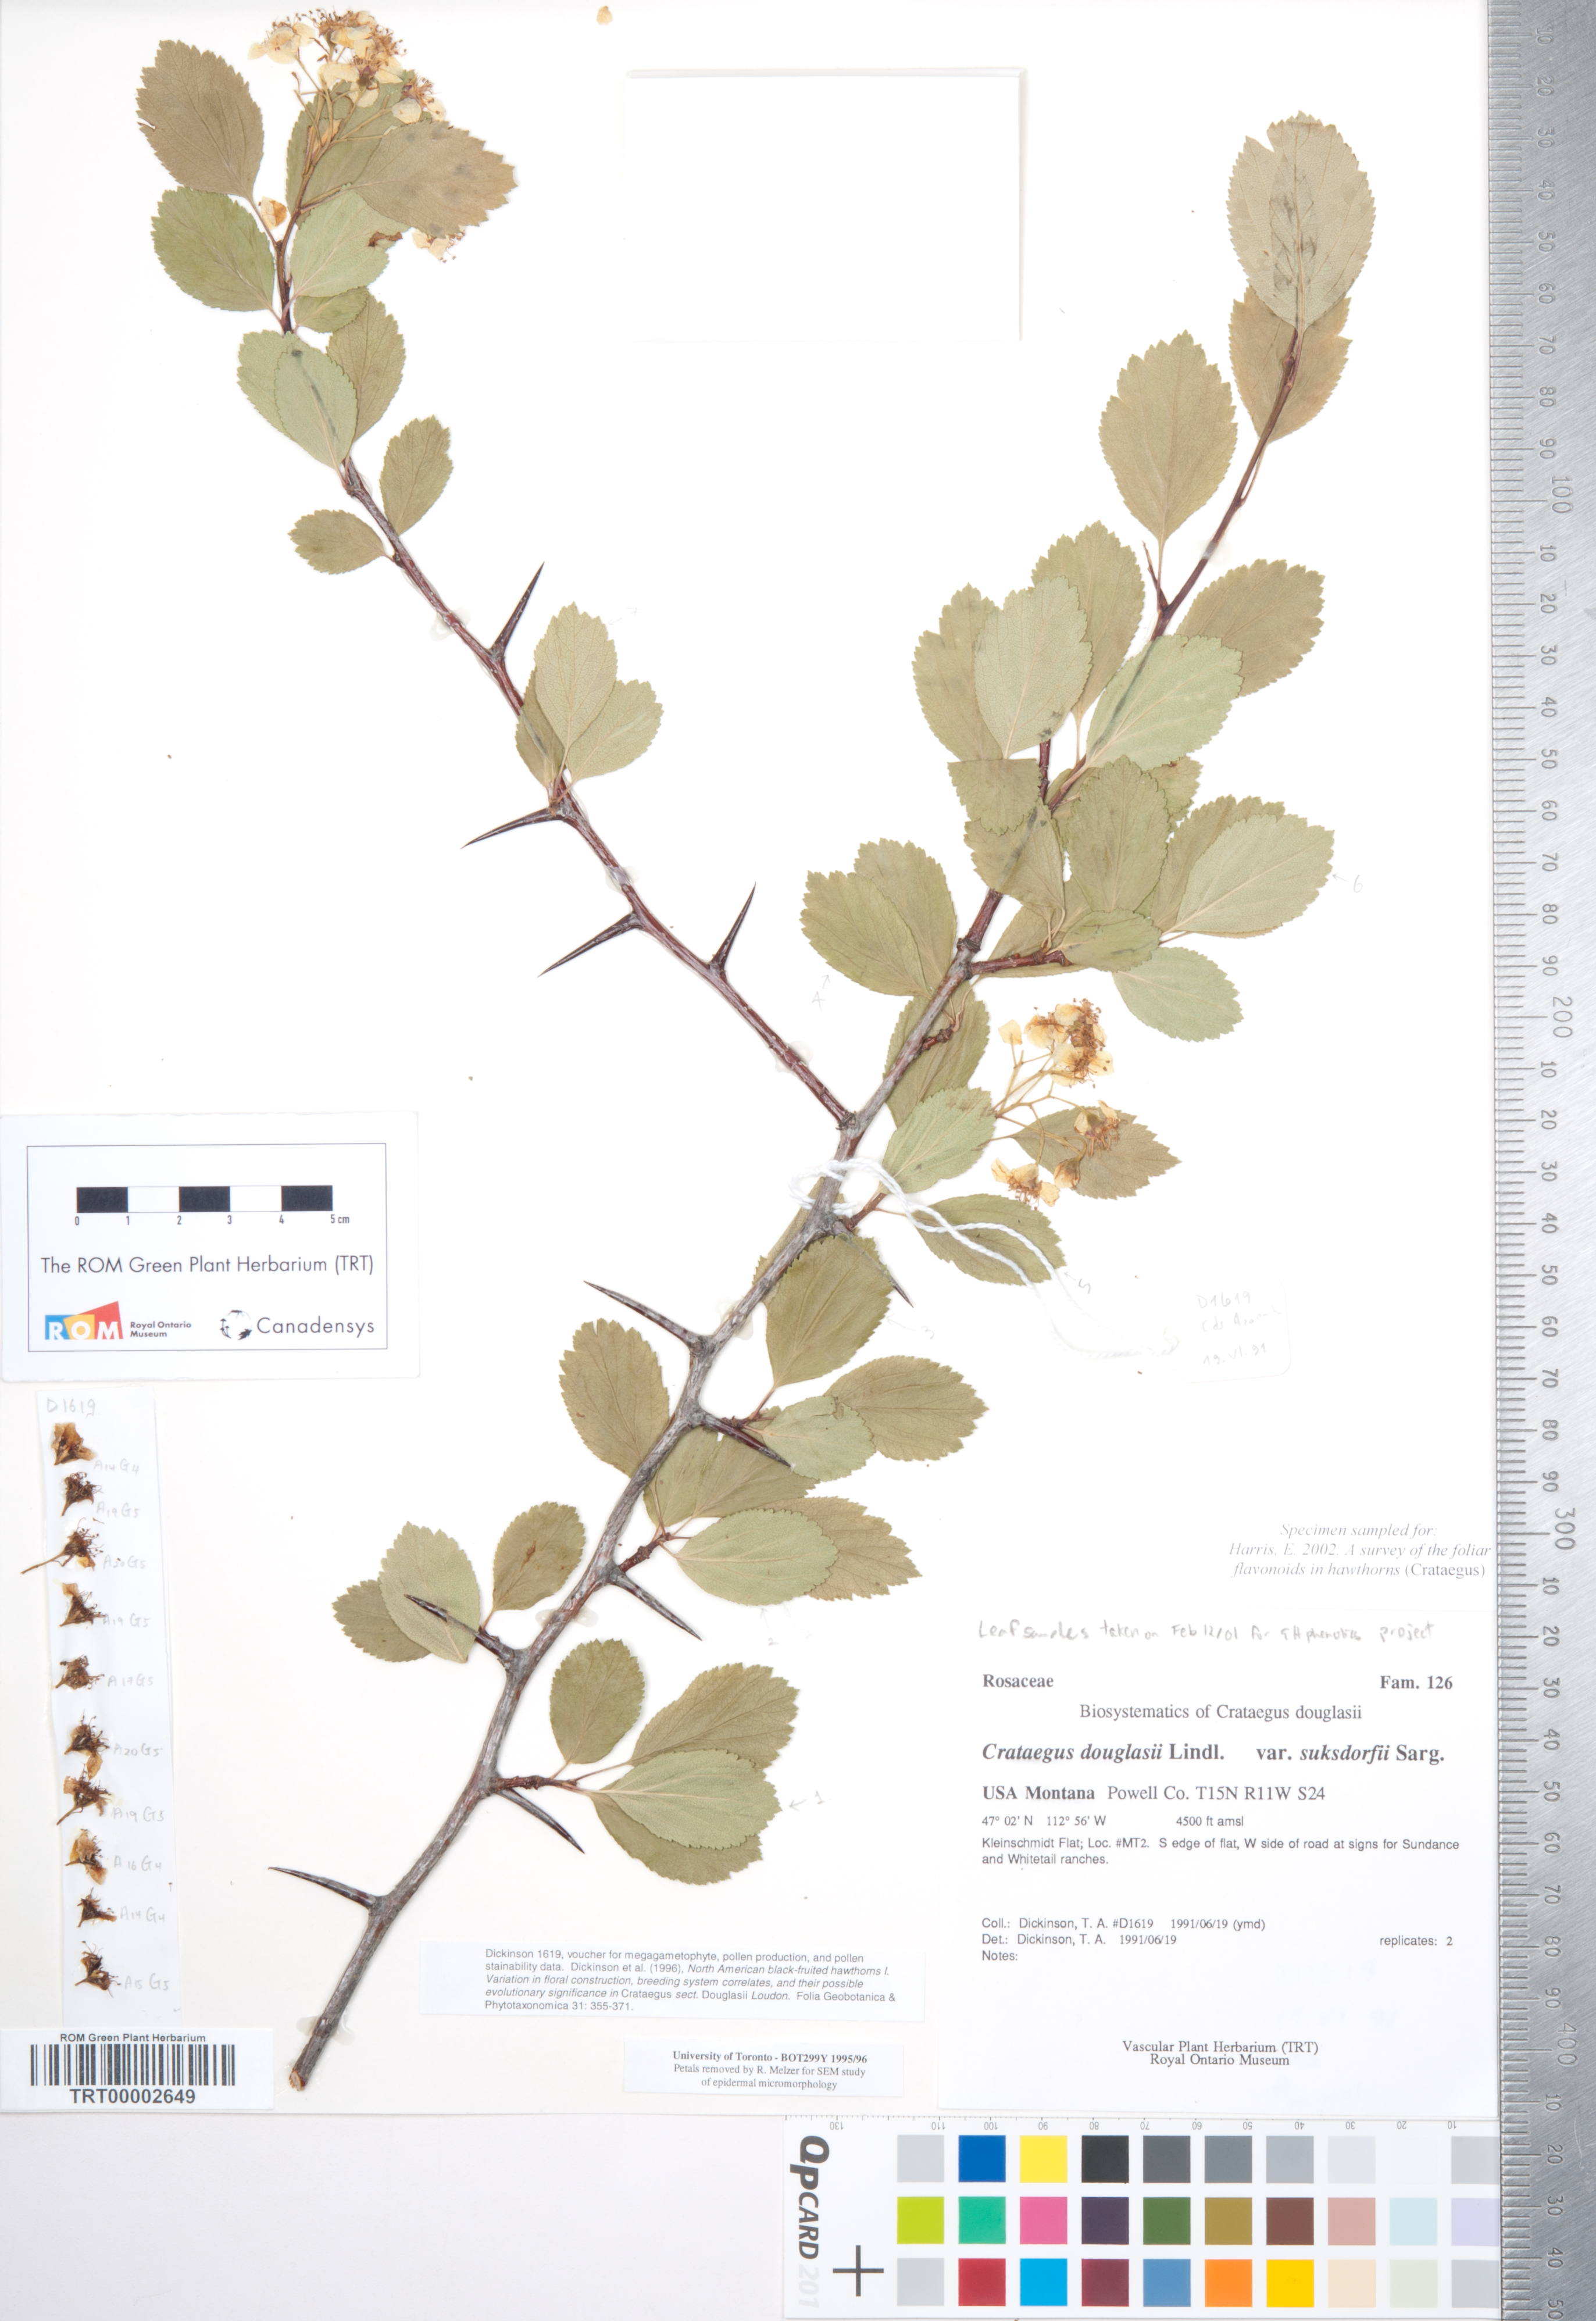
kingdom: Plantae
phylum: Tracheophyta
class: Magnoliopsida
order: Rosales
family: Rosaceae
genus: Crataegus
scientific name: Crataegus gaylussacia
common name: Huckleberry hawthorn
